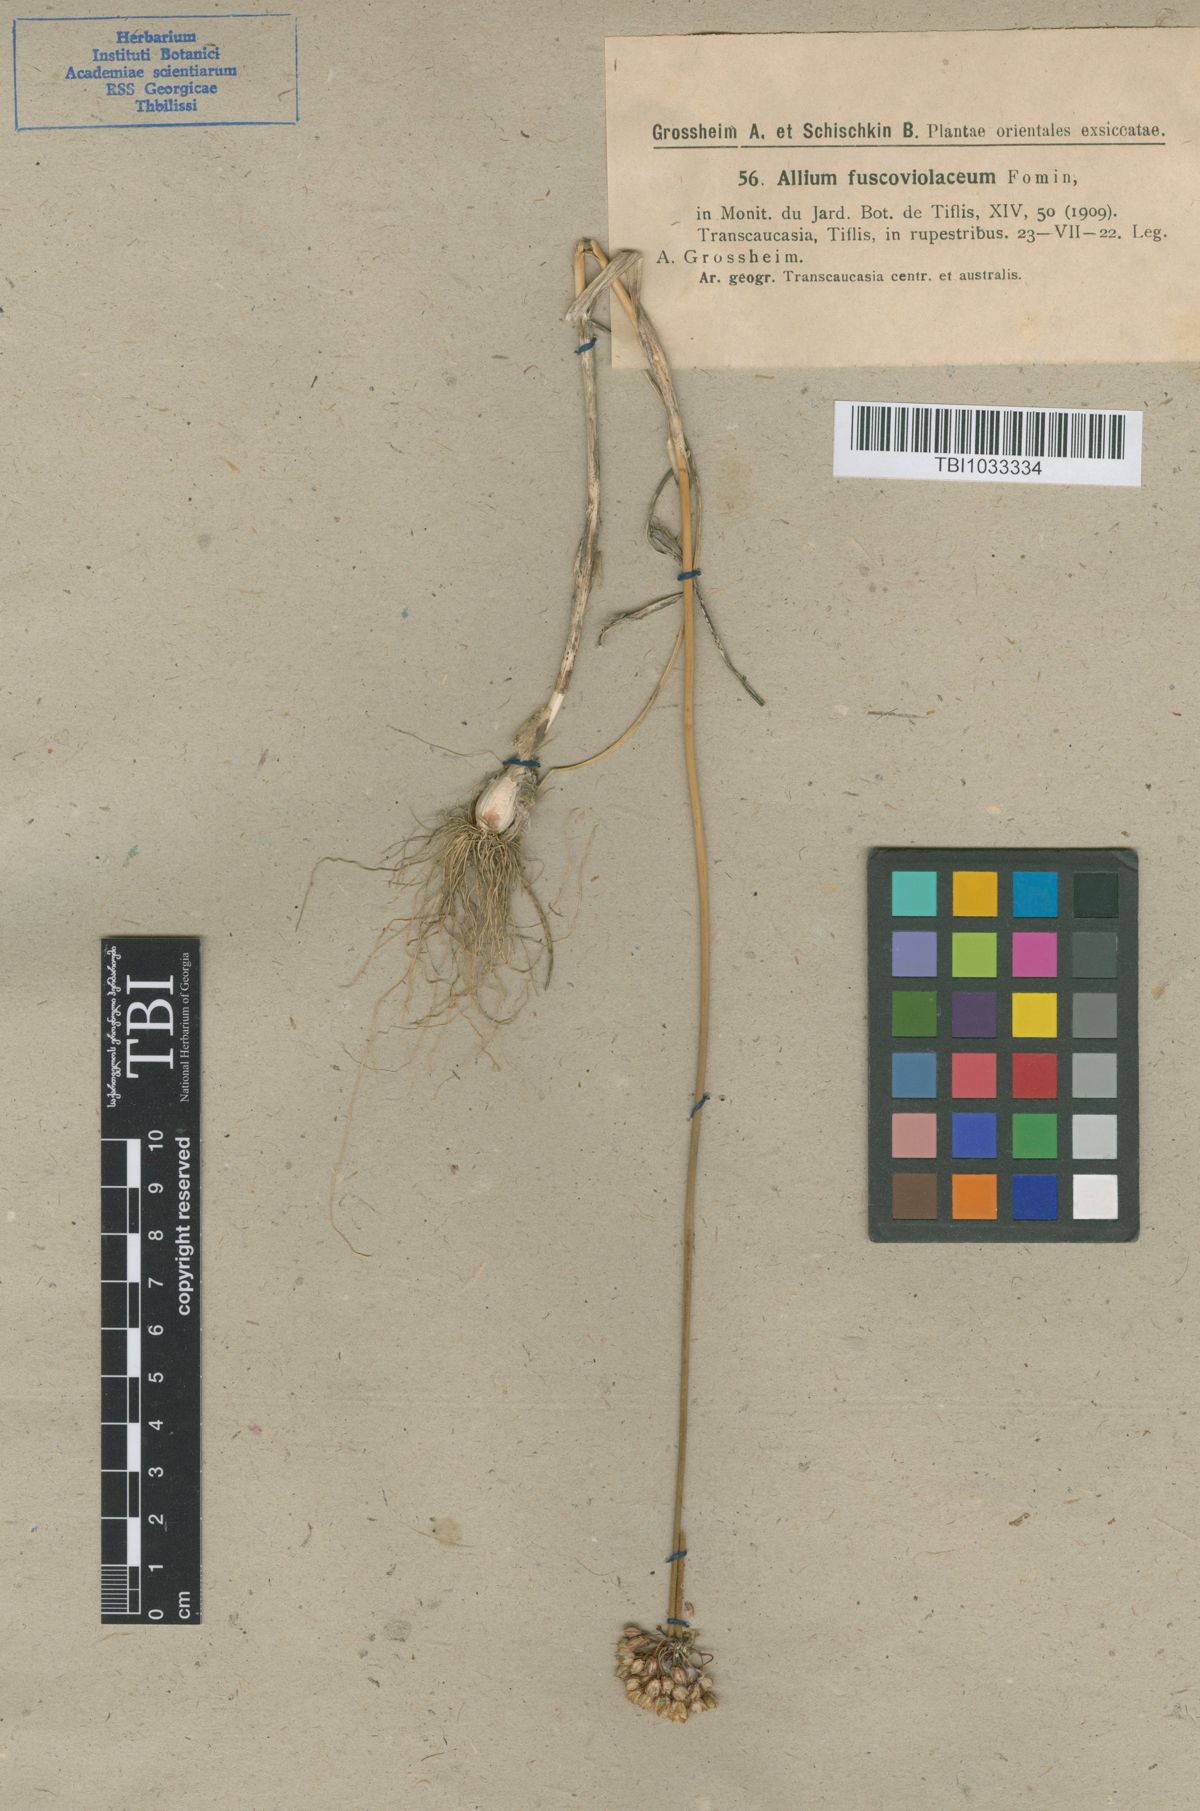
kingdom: Plantae
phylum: Tracheophyta
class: Liliopsida
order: Asparagales
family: Amaryllidaceae
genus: Allium
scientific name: Allium fuscoviolaceum
